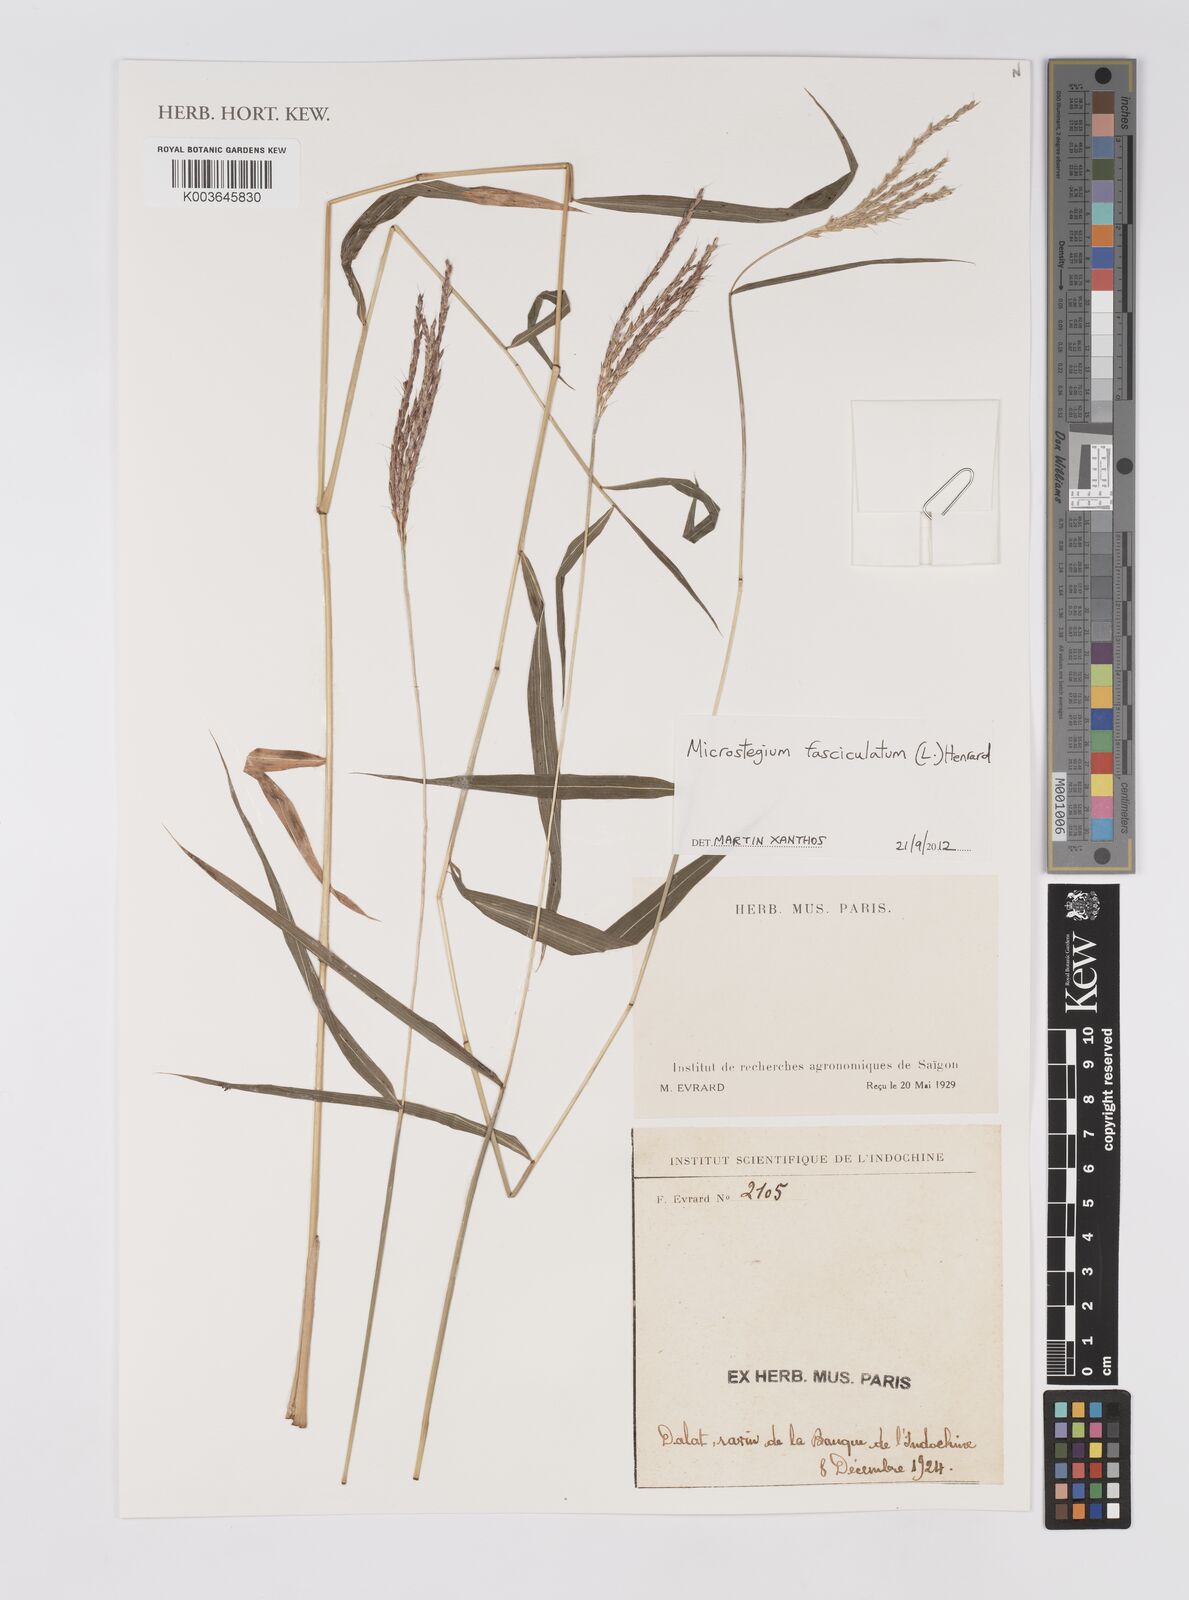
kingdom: Plantae
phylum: Tracheophyta
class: Liliopsida
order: Poales
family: Poaceae
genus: Microstegium
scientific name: Microstegium fasciculatum
